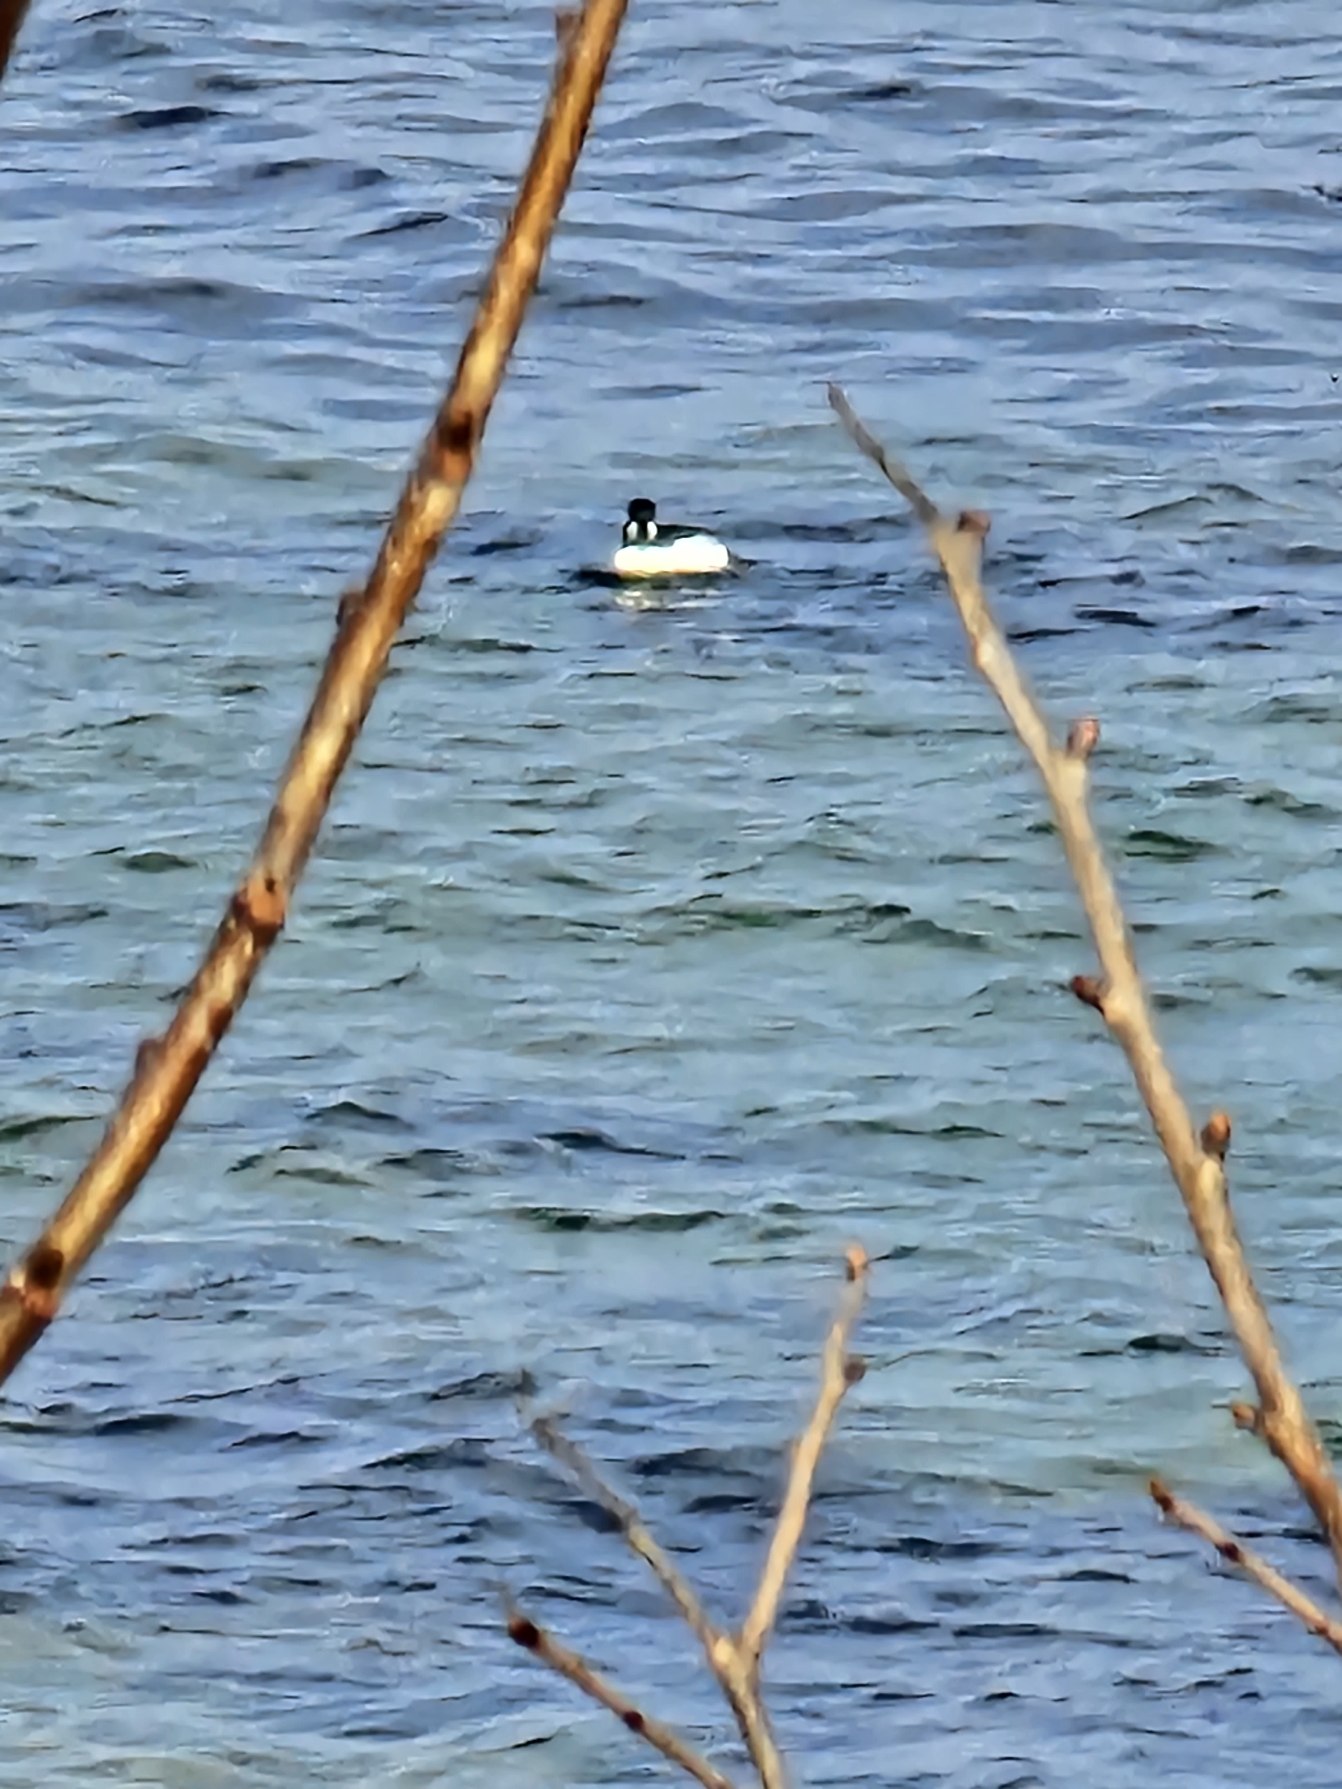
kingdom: Animalia
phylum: Chordata
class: Aves
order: Anseriformes
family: Anatidae
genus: Bucephala
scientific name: Bucephala clangula
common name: Hvinand
